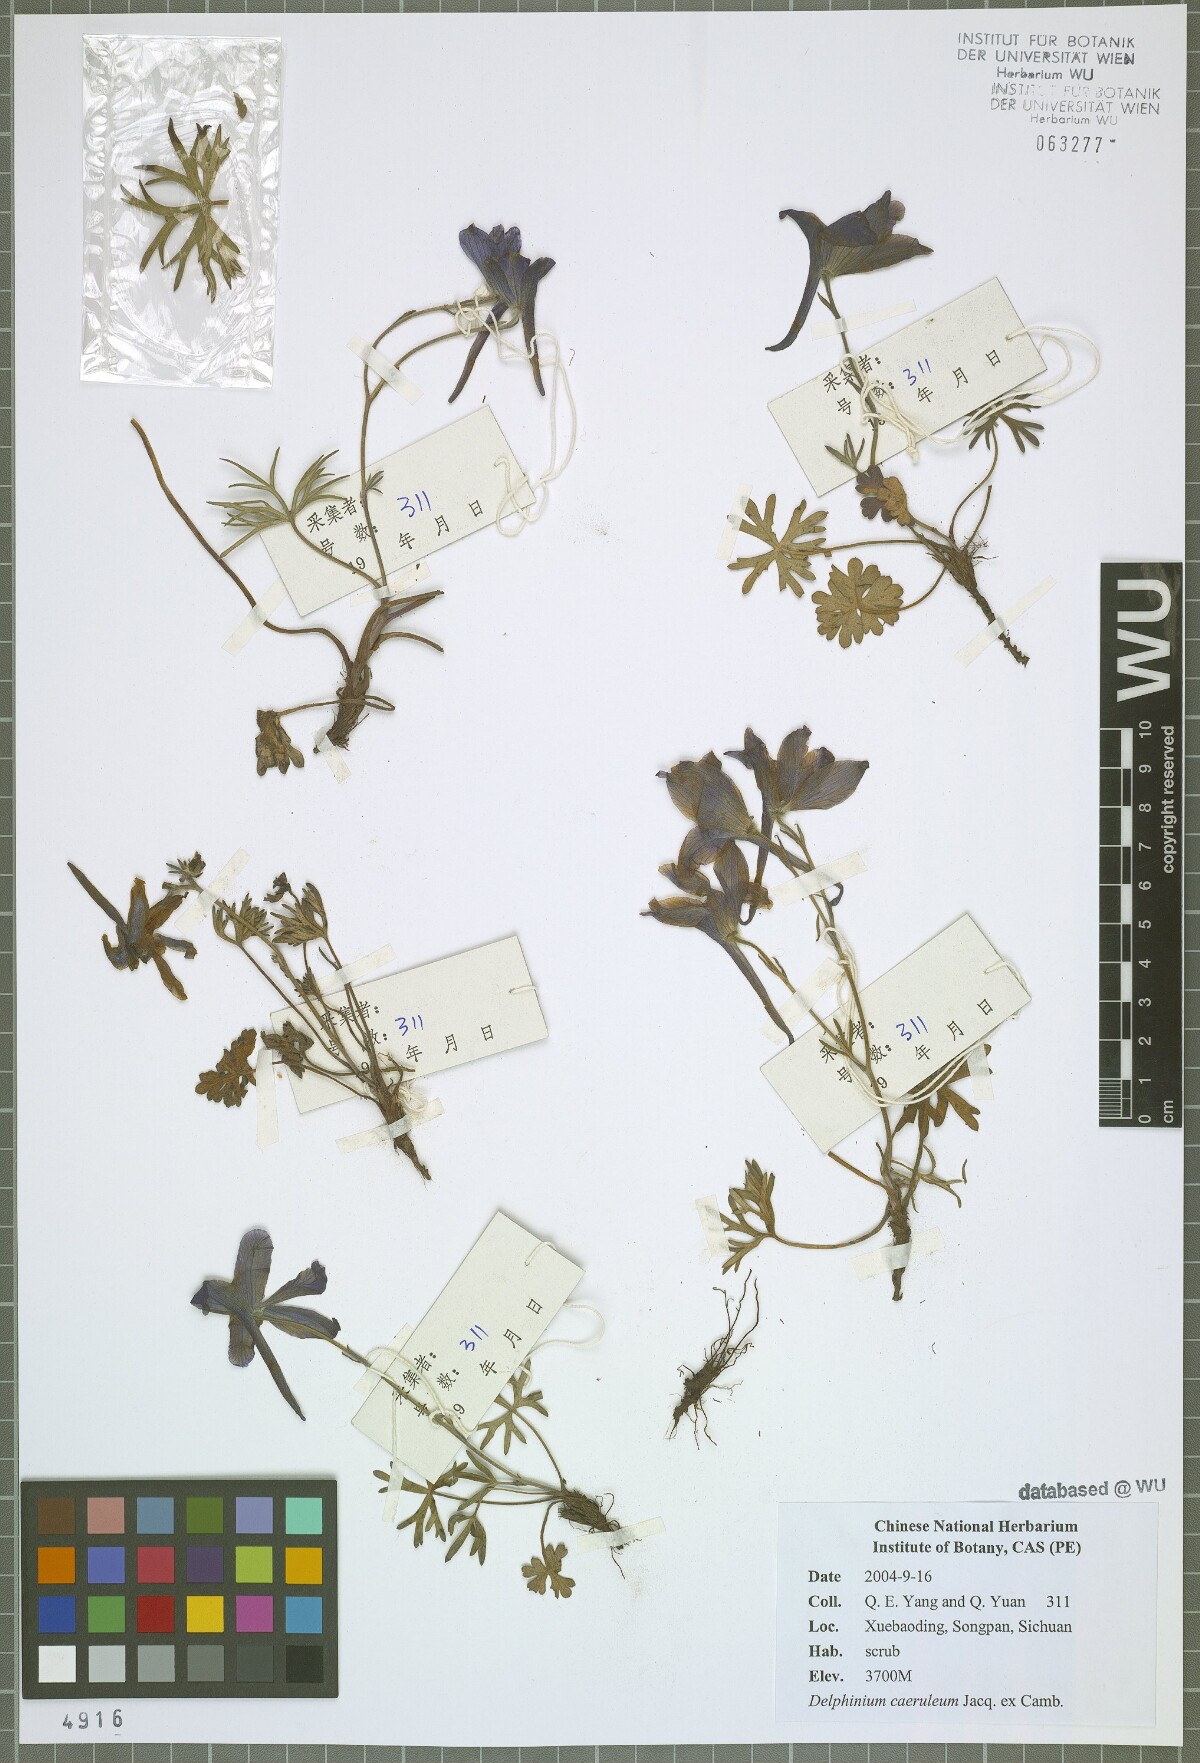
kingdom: Plantae
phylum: Tracheophyta
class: Magnoliopsida
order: Ranunculales
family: Ranunculaceae
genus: Delphinium
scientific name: Delphinium caeruleum
